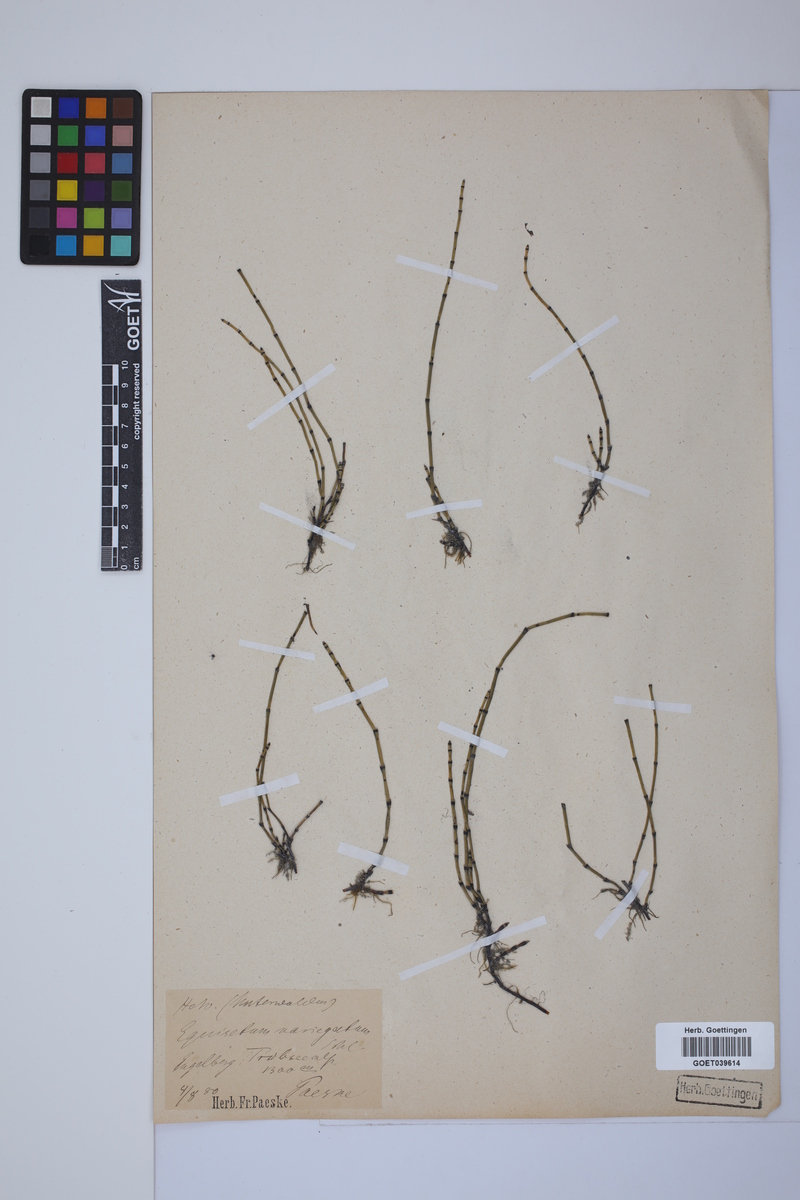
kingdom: Plantae
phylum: Tracheophyta
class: Polypodiopsida
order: Equisetales
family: Equisetaceae
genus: Equisetum
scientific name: Equisetum variegatum
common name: Variegated horsetail
